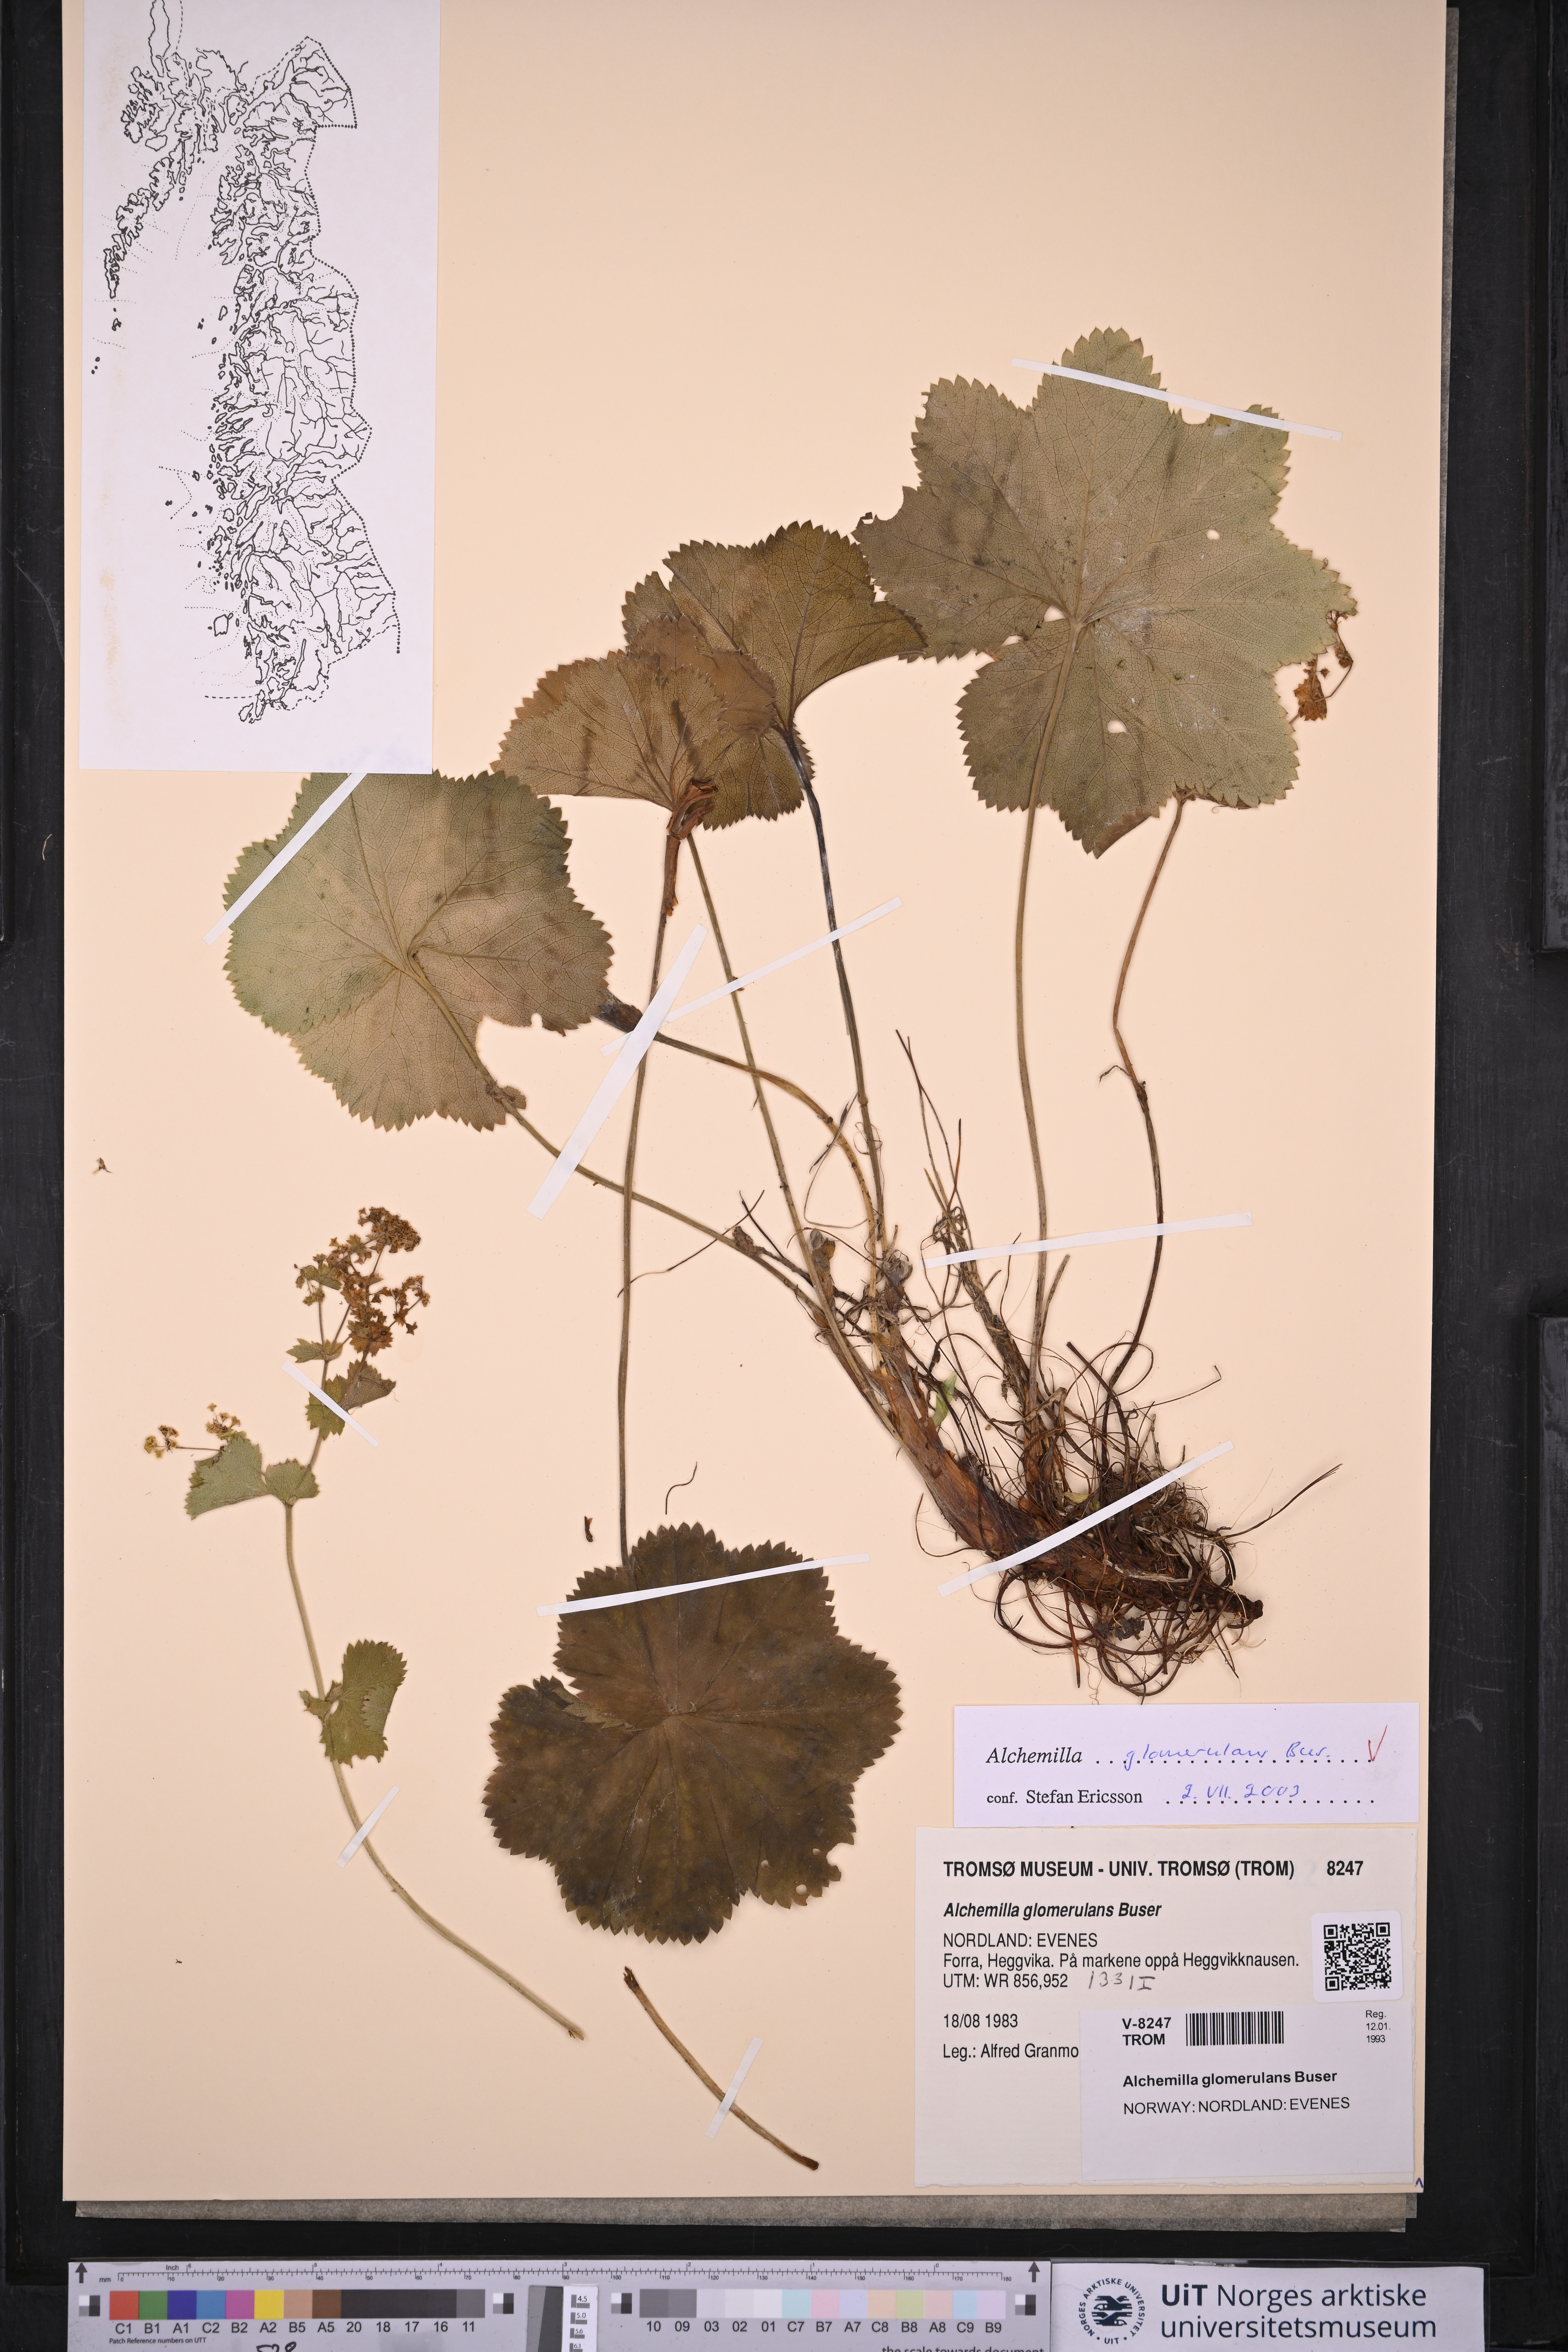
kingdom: Plantae
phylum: Tracheophyta
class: Magnoliopsida
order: Rosales
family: Rosaceae
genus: Alchemilla
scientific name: Alchemilla glomerulans
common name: Clustered lady's mantle
